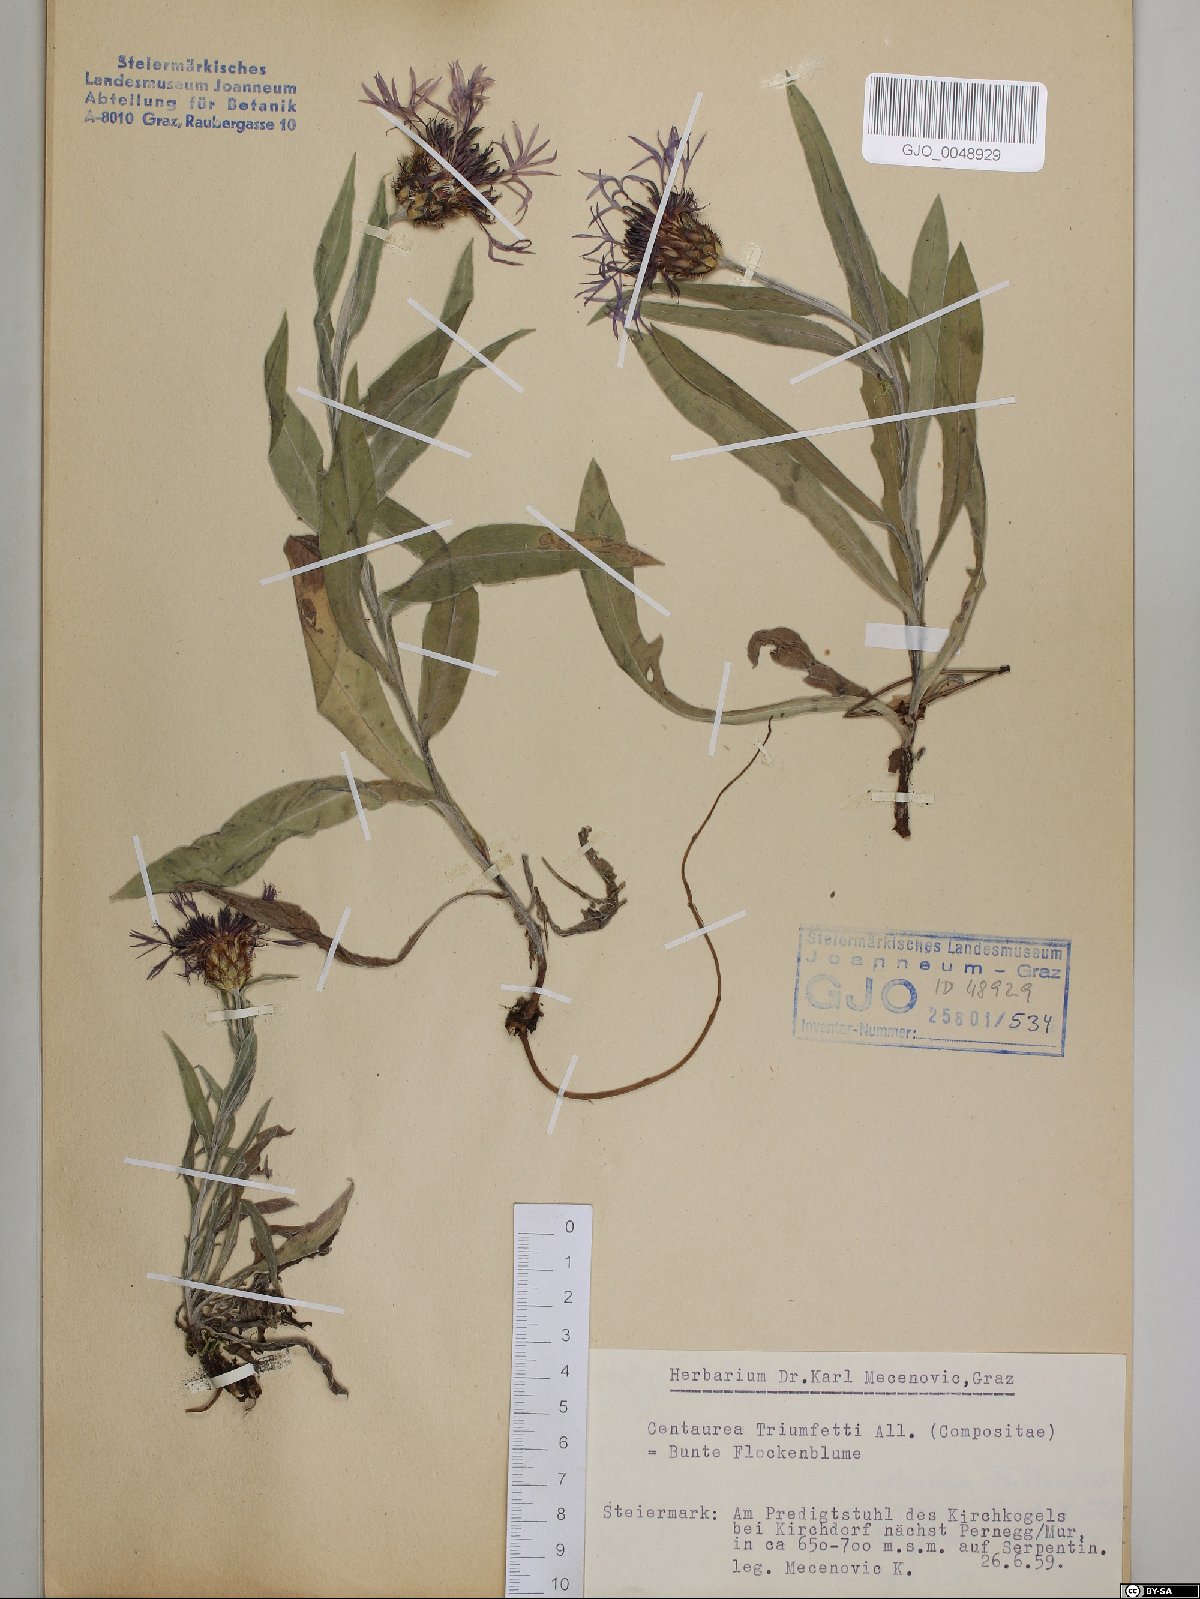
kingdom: Plantae
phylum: Tracheophyta
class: Magnoliopsida
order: Asterales
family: Asteraceae
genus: Centaurea
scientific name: Centaurea triumfettii
